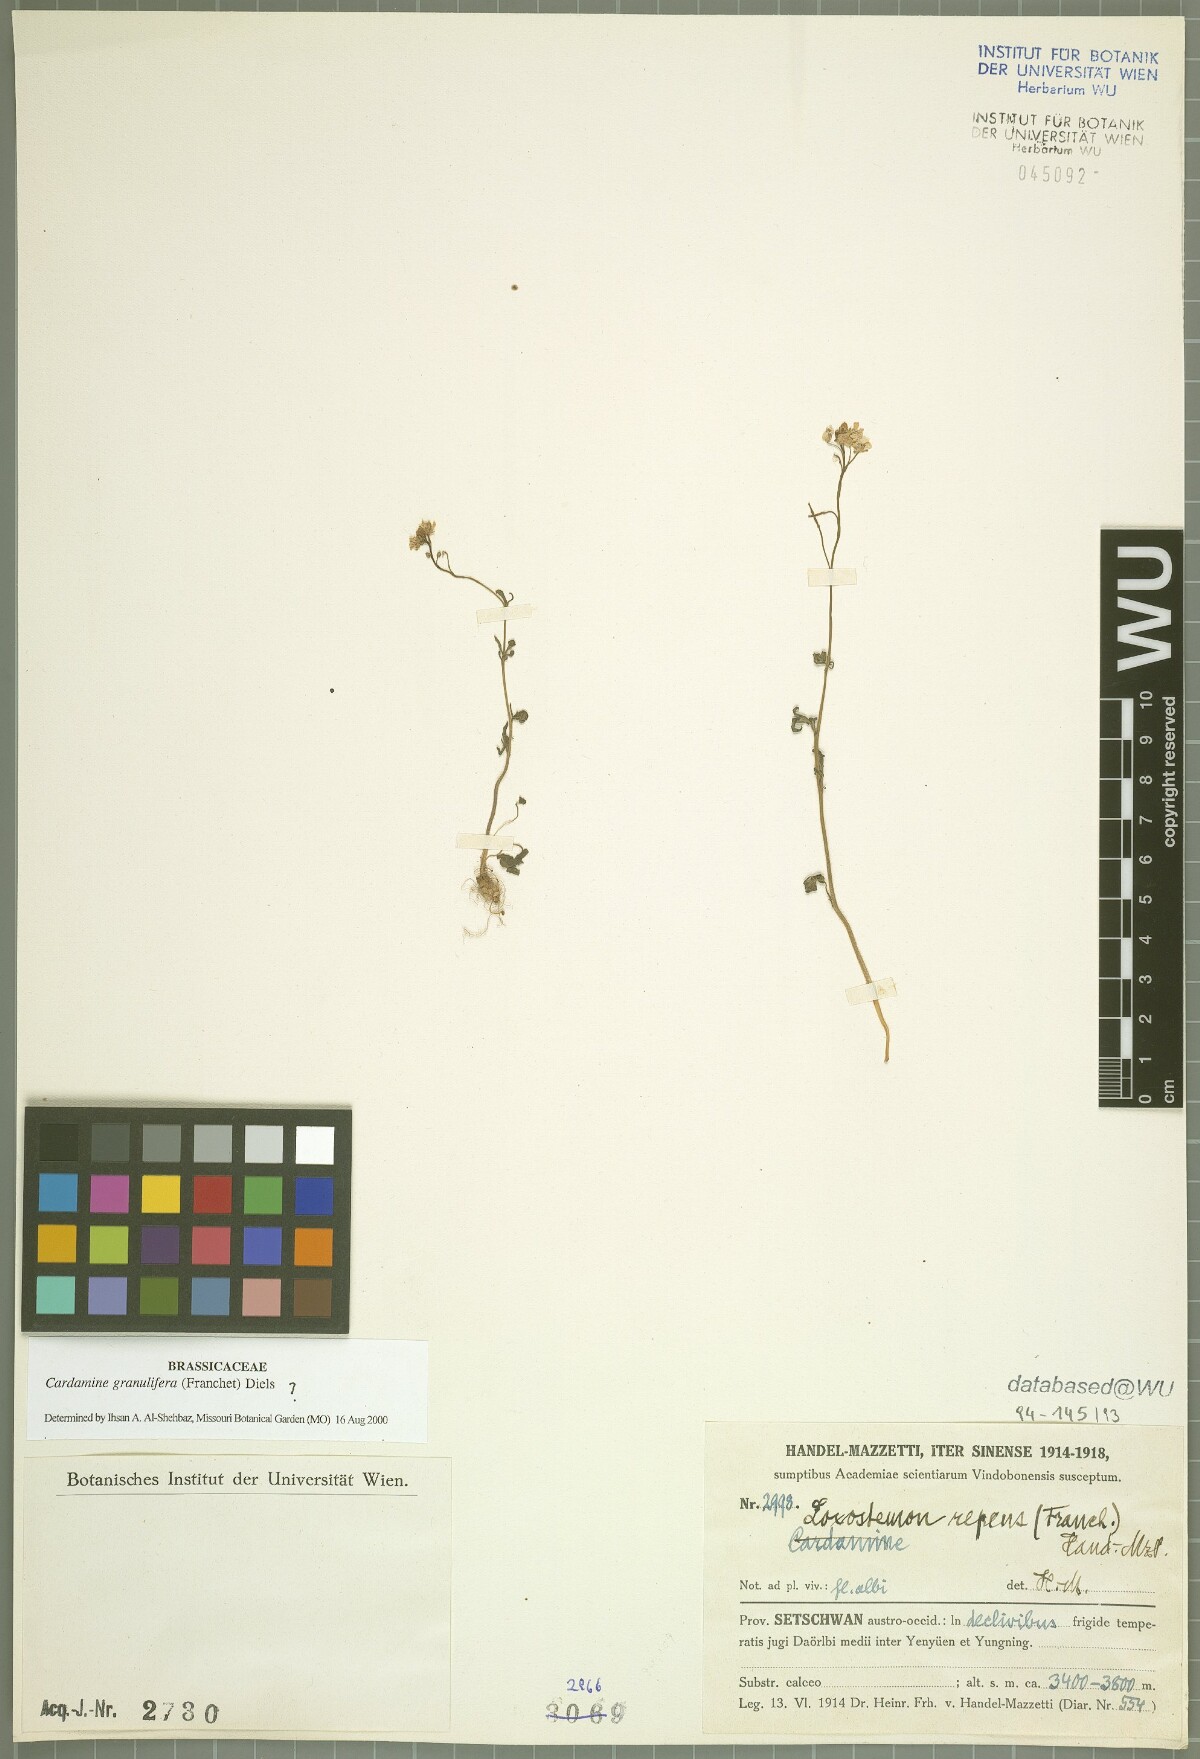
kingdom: Plantae
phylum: Tracheophyta
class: Magnoliopsida
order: Brassicales
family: Brassicaceae
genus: Cardamine
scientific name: Cardamine granulifera
